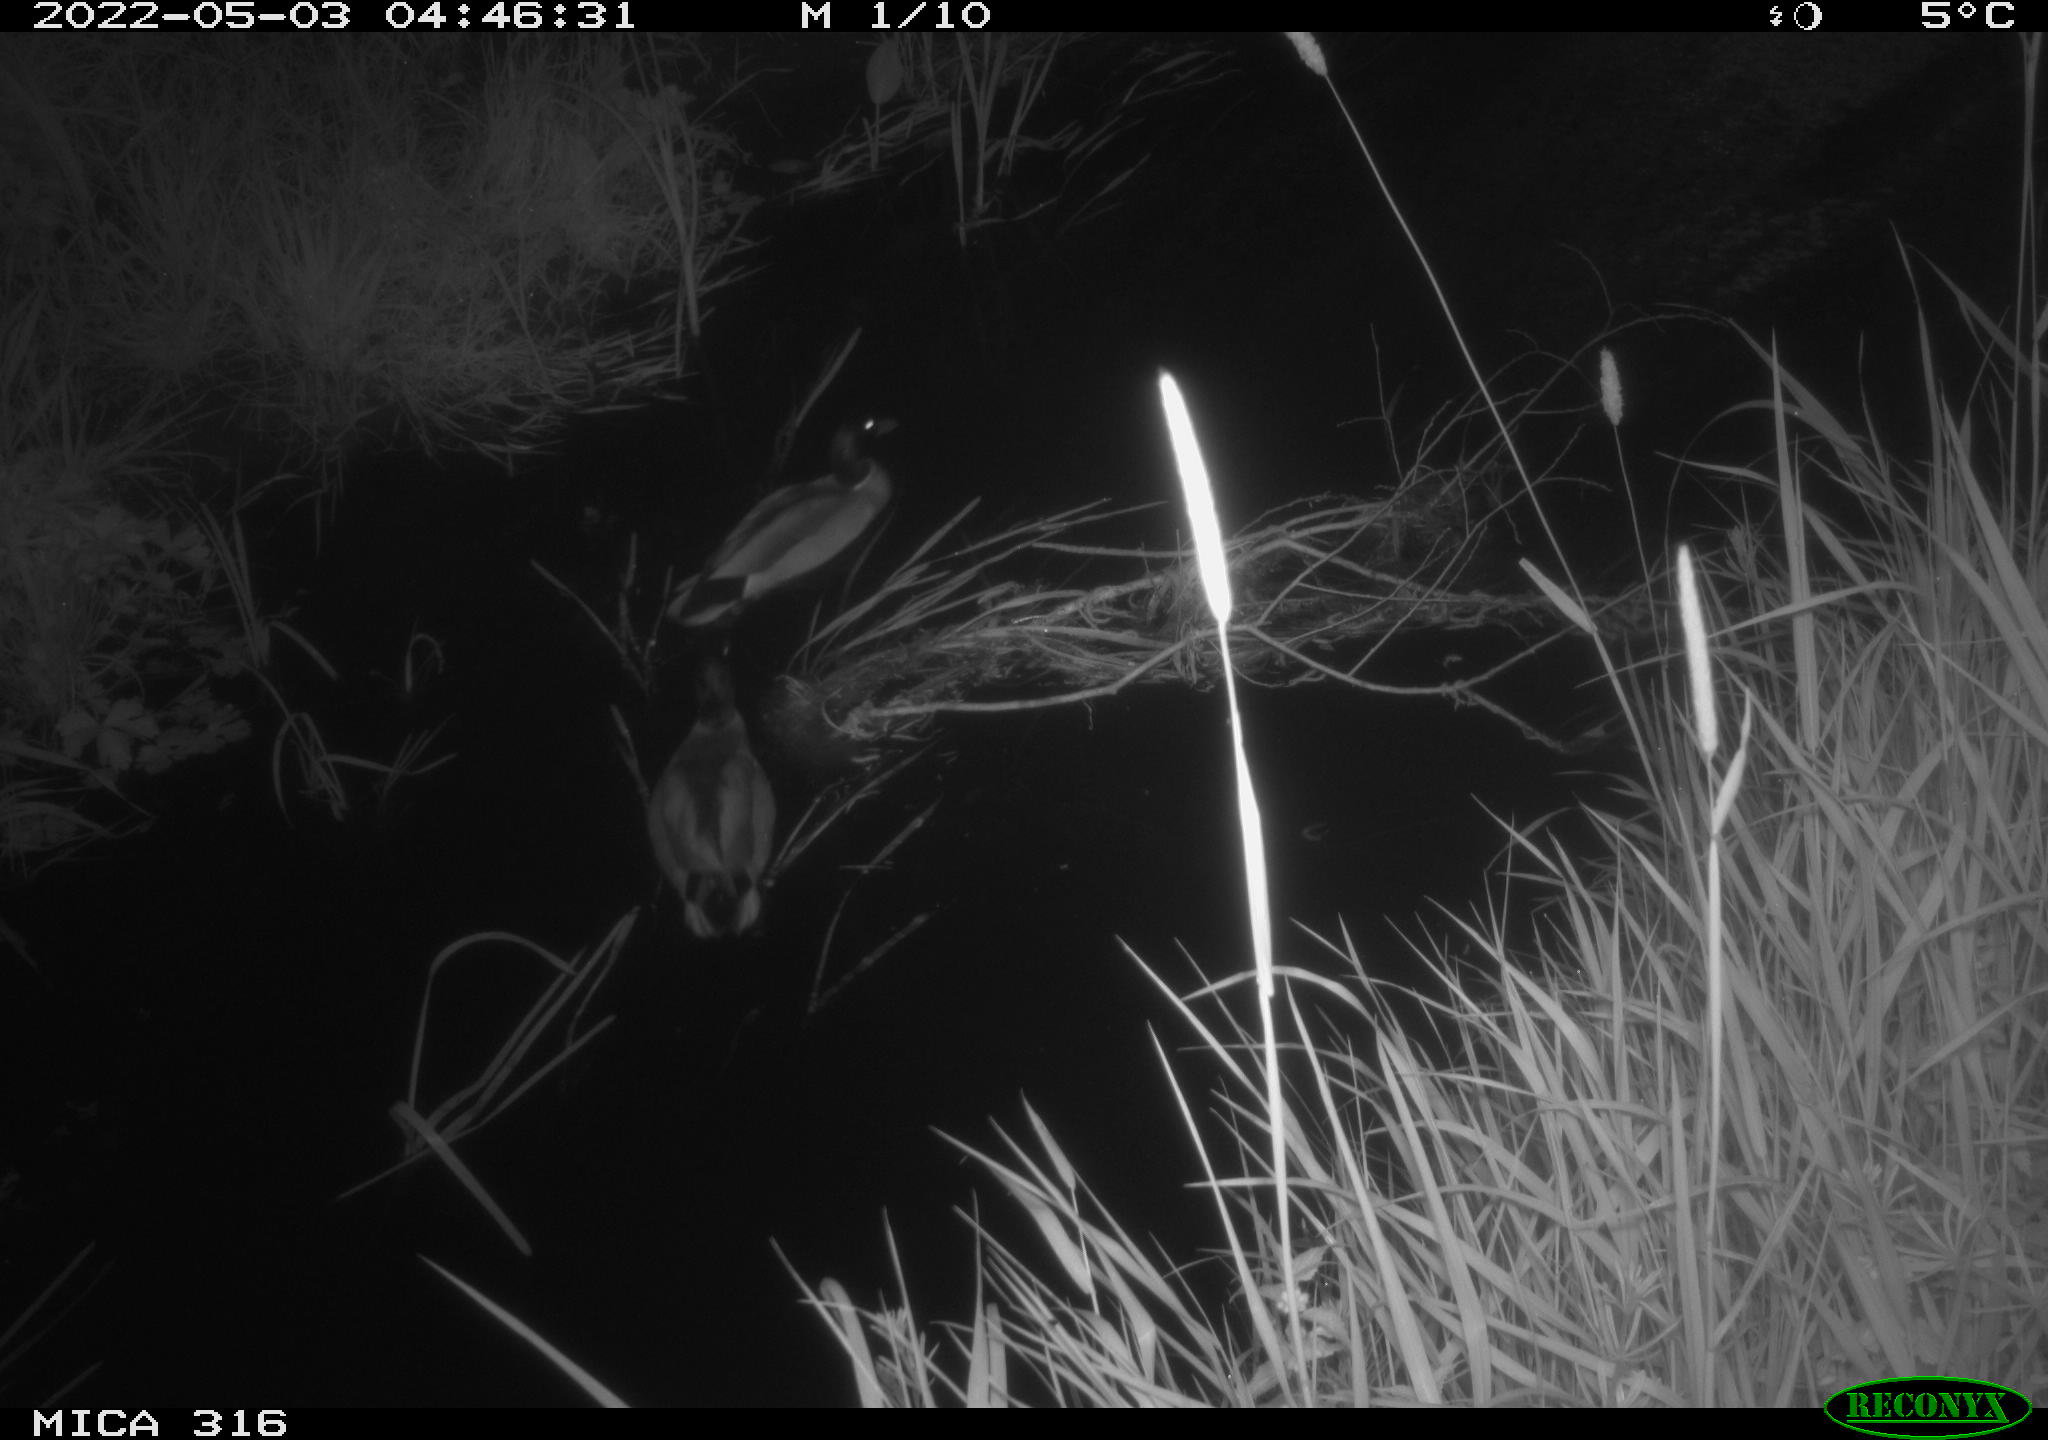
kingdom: Animalia
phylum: Chordata
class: Aves
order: Anseriformes
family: Anatidae
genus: Anas
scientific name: Anas platyrhynchos
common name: Mallard
